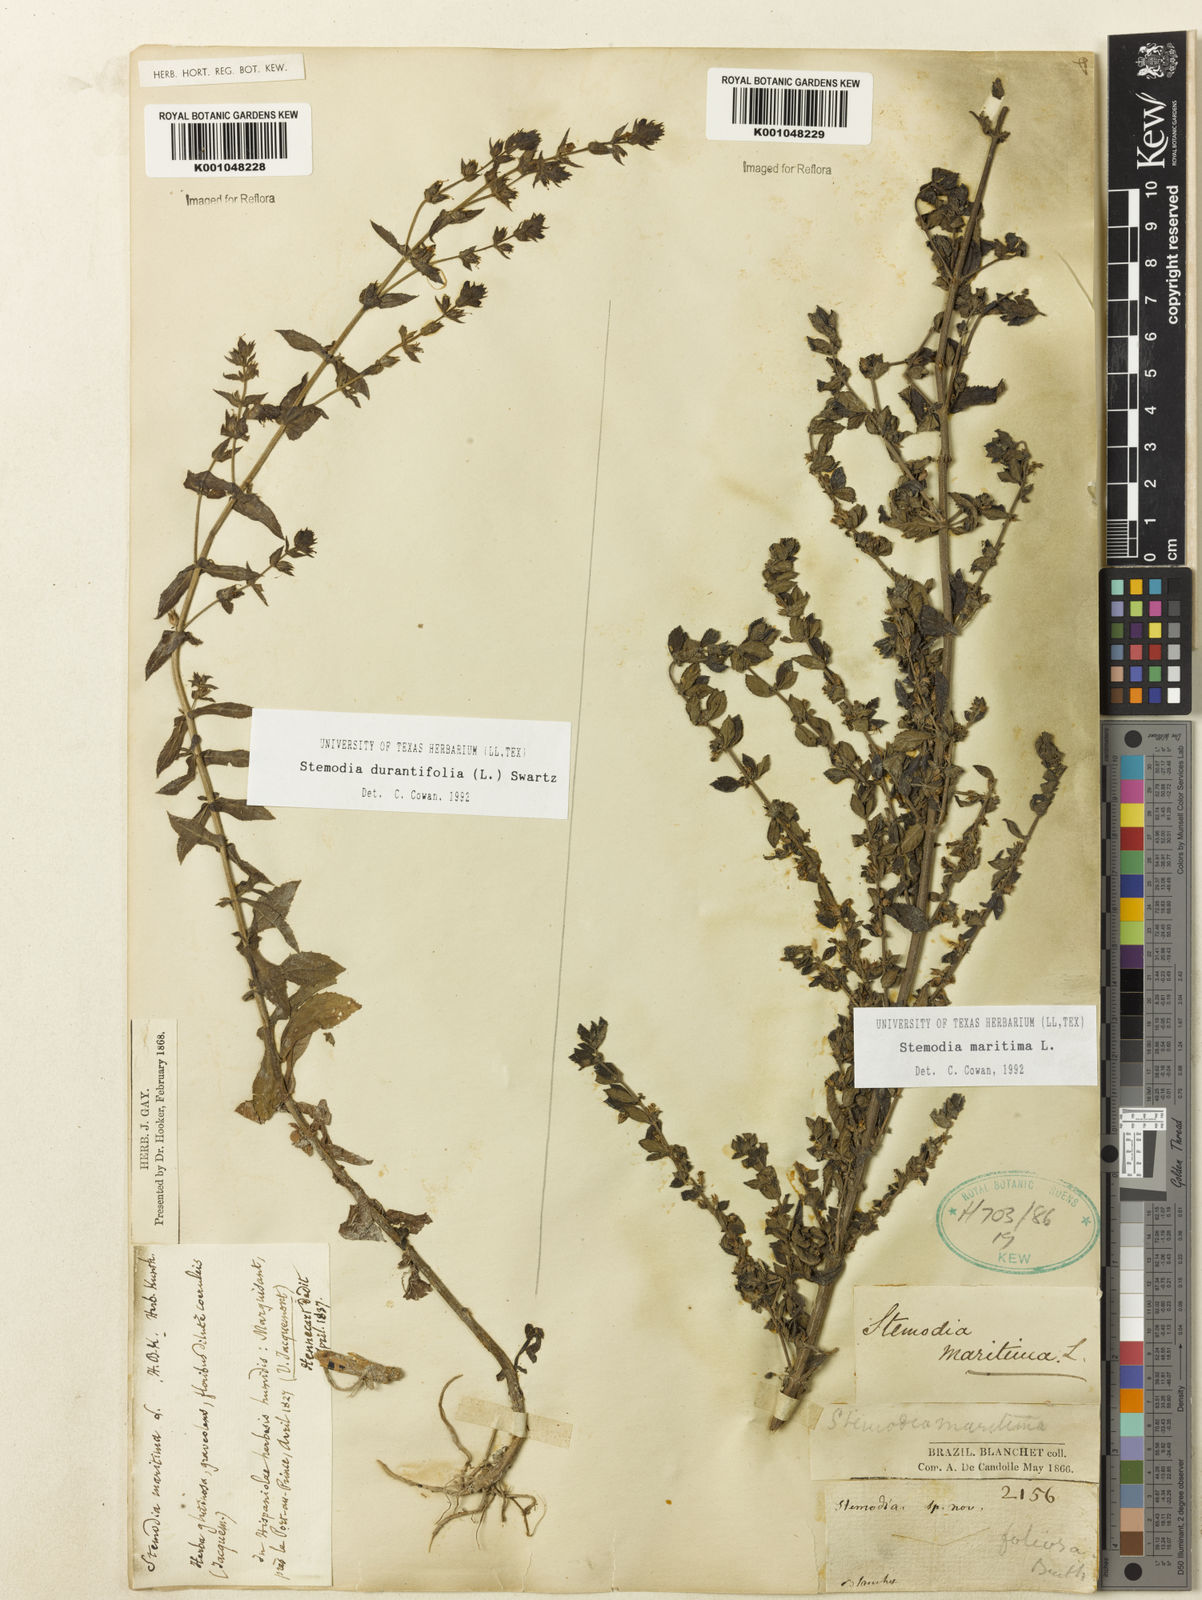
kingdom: Plantae
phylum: Tracheophyta
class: Magnoliopsida
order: Lamiales
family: Plantaginaceae
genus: Stemodia
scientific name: Stemodia maritima
